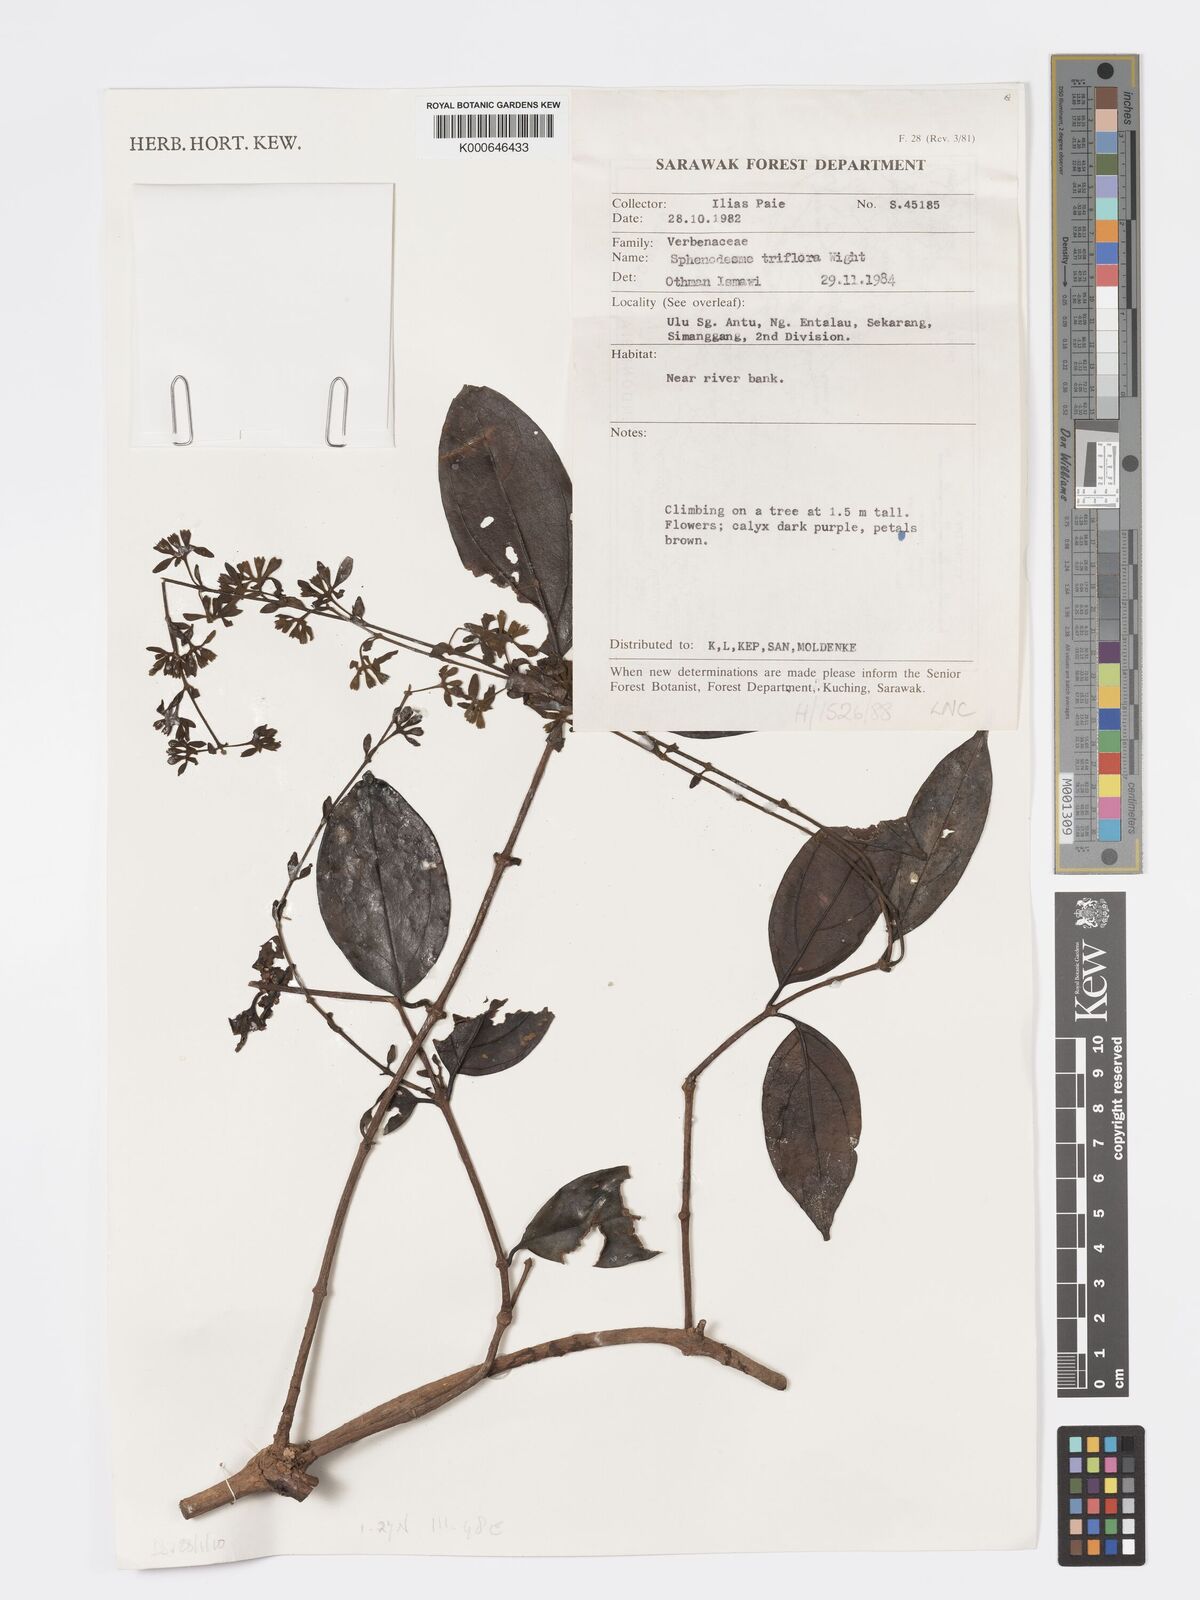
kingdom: Plantae
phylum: Tracheophyta
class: Magnoliopsida
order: Lamiales
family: Lamiaceae
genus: Sphenodesme
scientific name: Sphenodesme triflora
